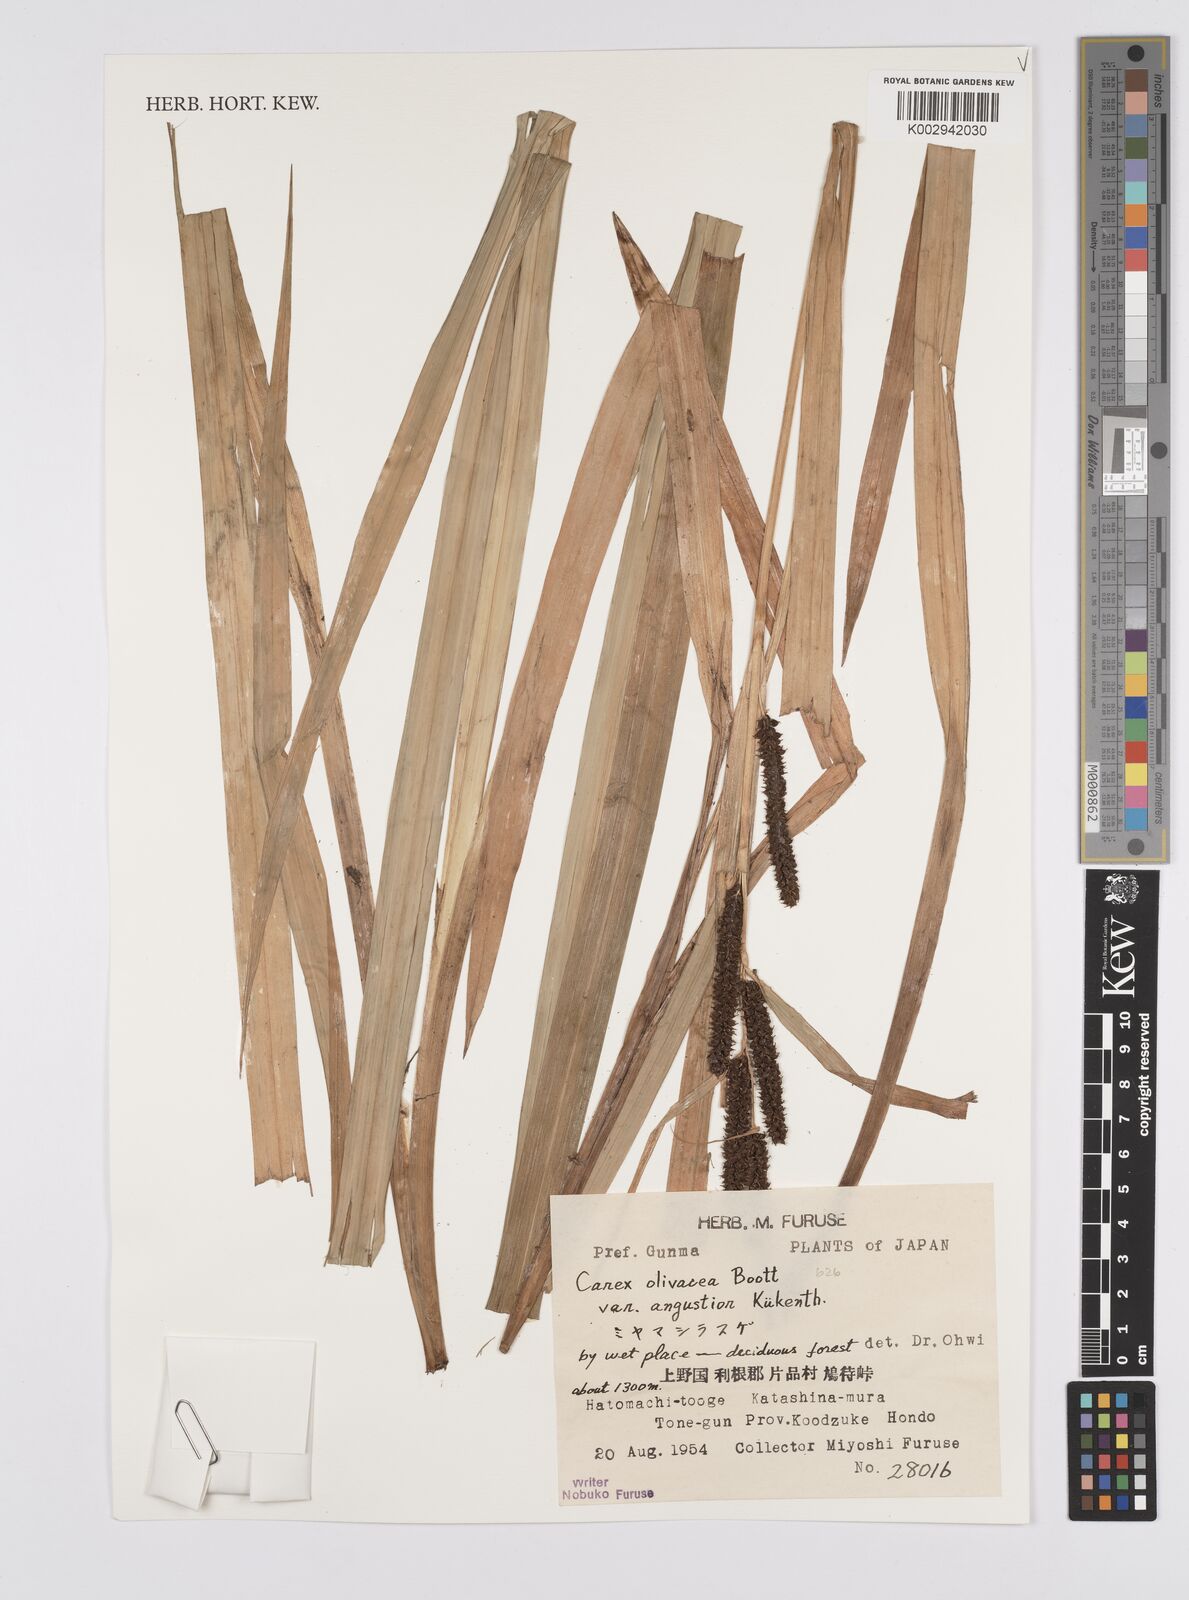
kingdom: Plantae
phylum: Tracheophyta
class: Liliopsida
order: Poales
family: Cyperaceae
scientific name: Cyperaceae
